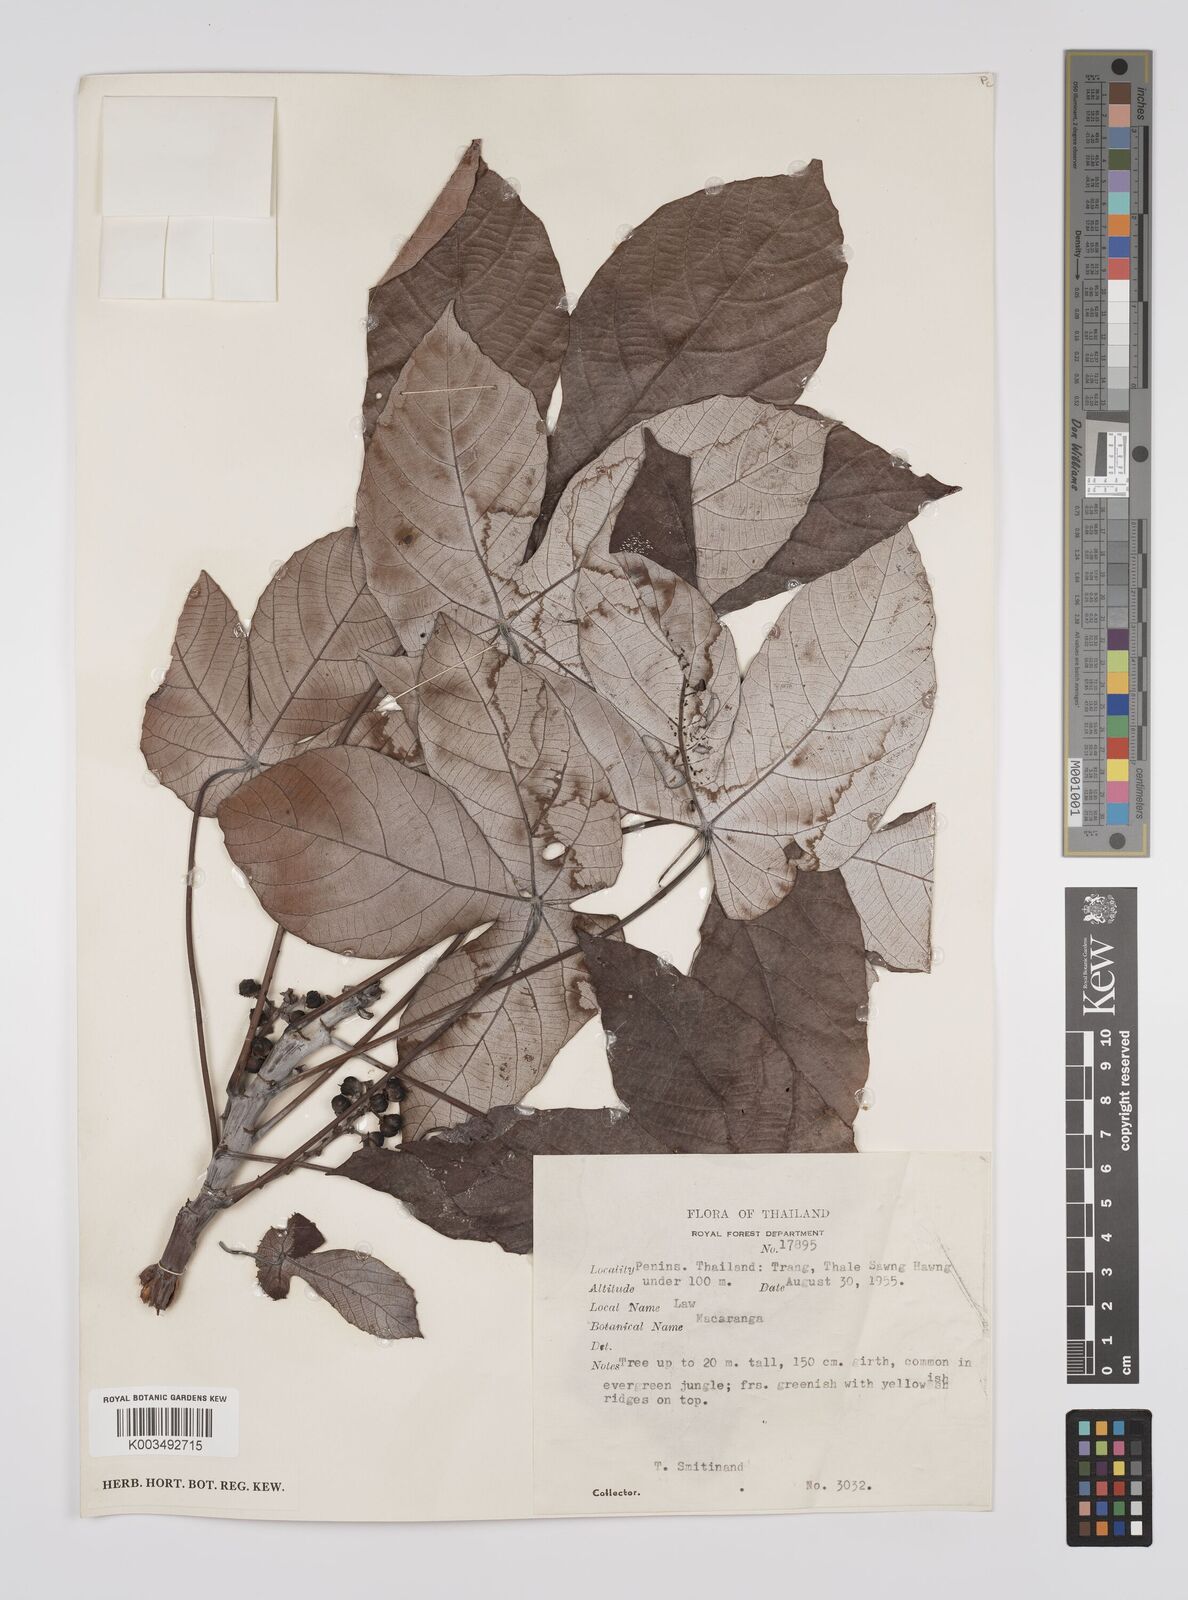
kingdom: Plantae
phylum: Tracheophyta
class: Magnoliopsida
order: Malpighiales
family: Euphorbiaceae
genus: Macaranga
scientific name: Macaranga hypoleuca
